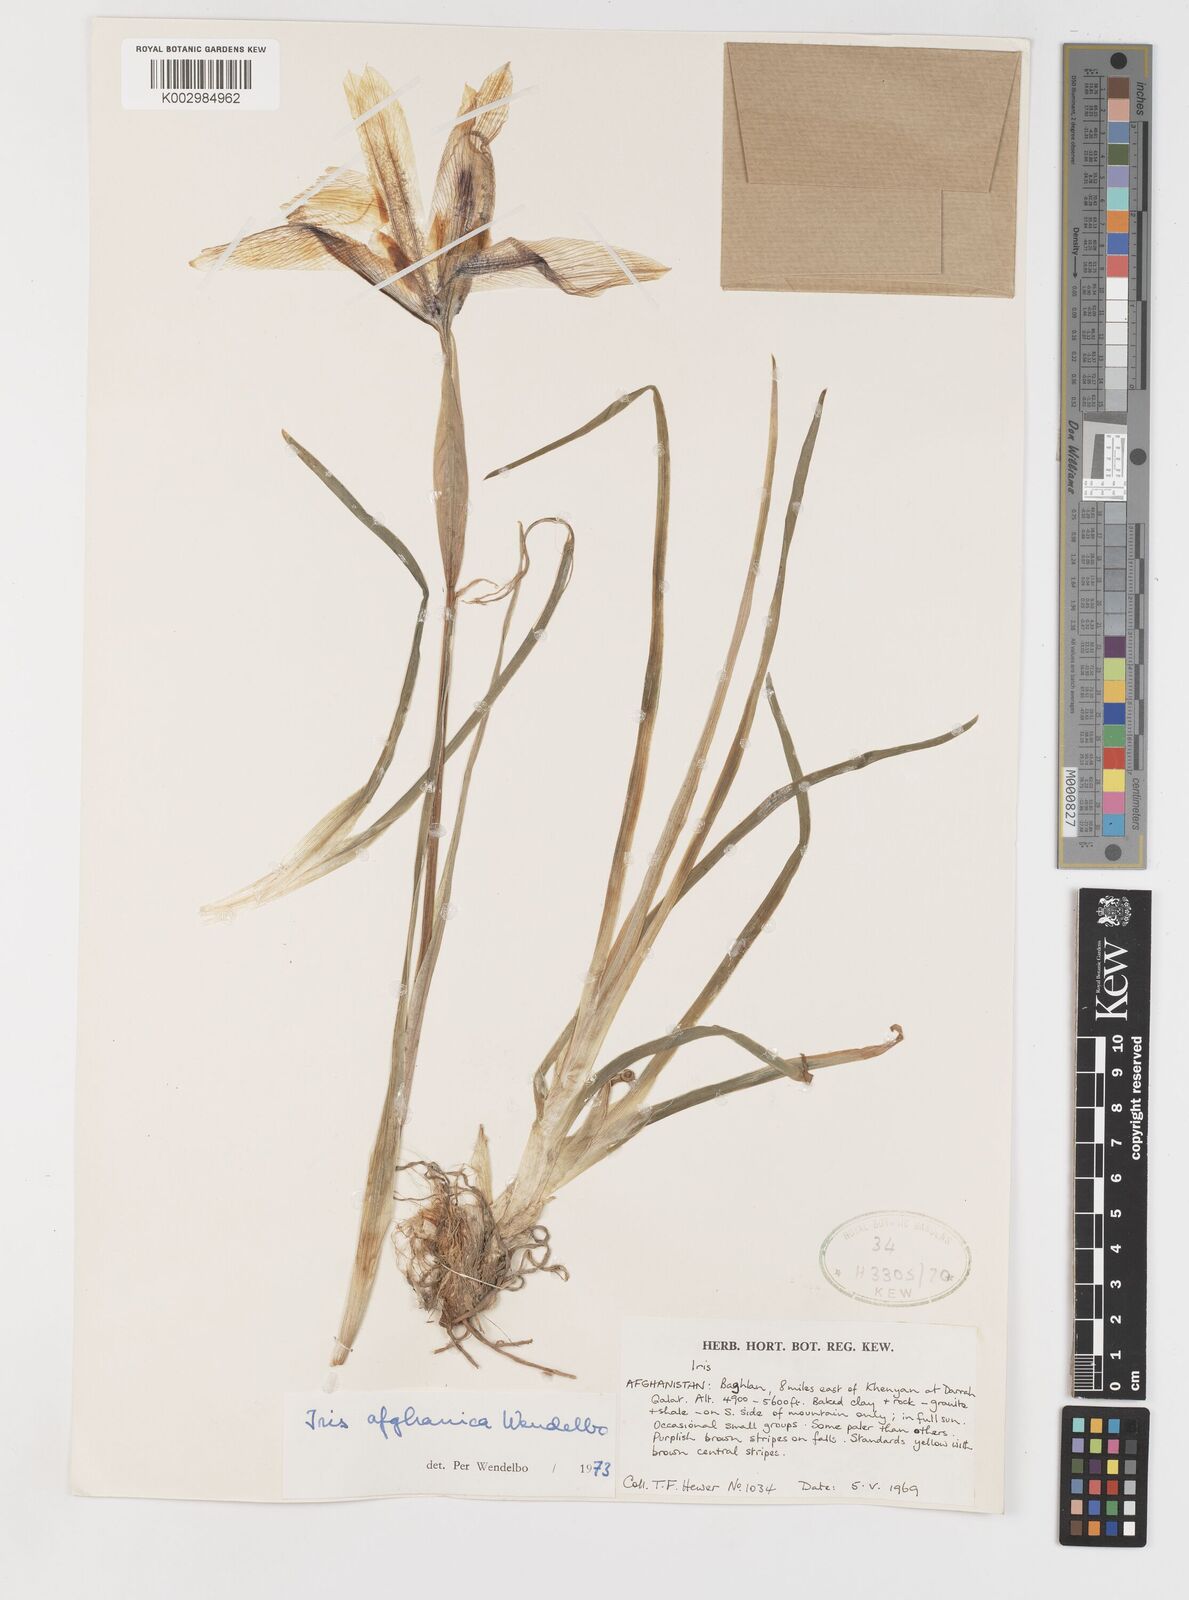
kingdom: Plantae
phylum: Tracheophyta
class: Liliopsida
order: Asparagales
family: Iridaceae
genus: Iris
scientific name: Iris afghanica
